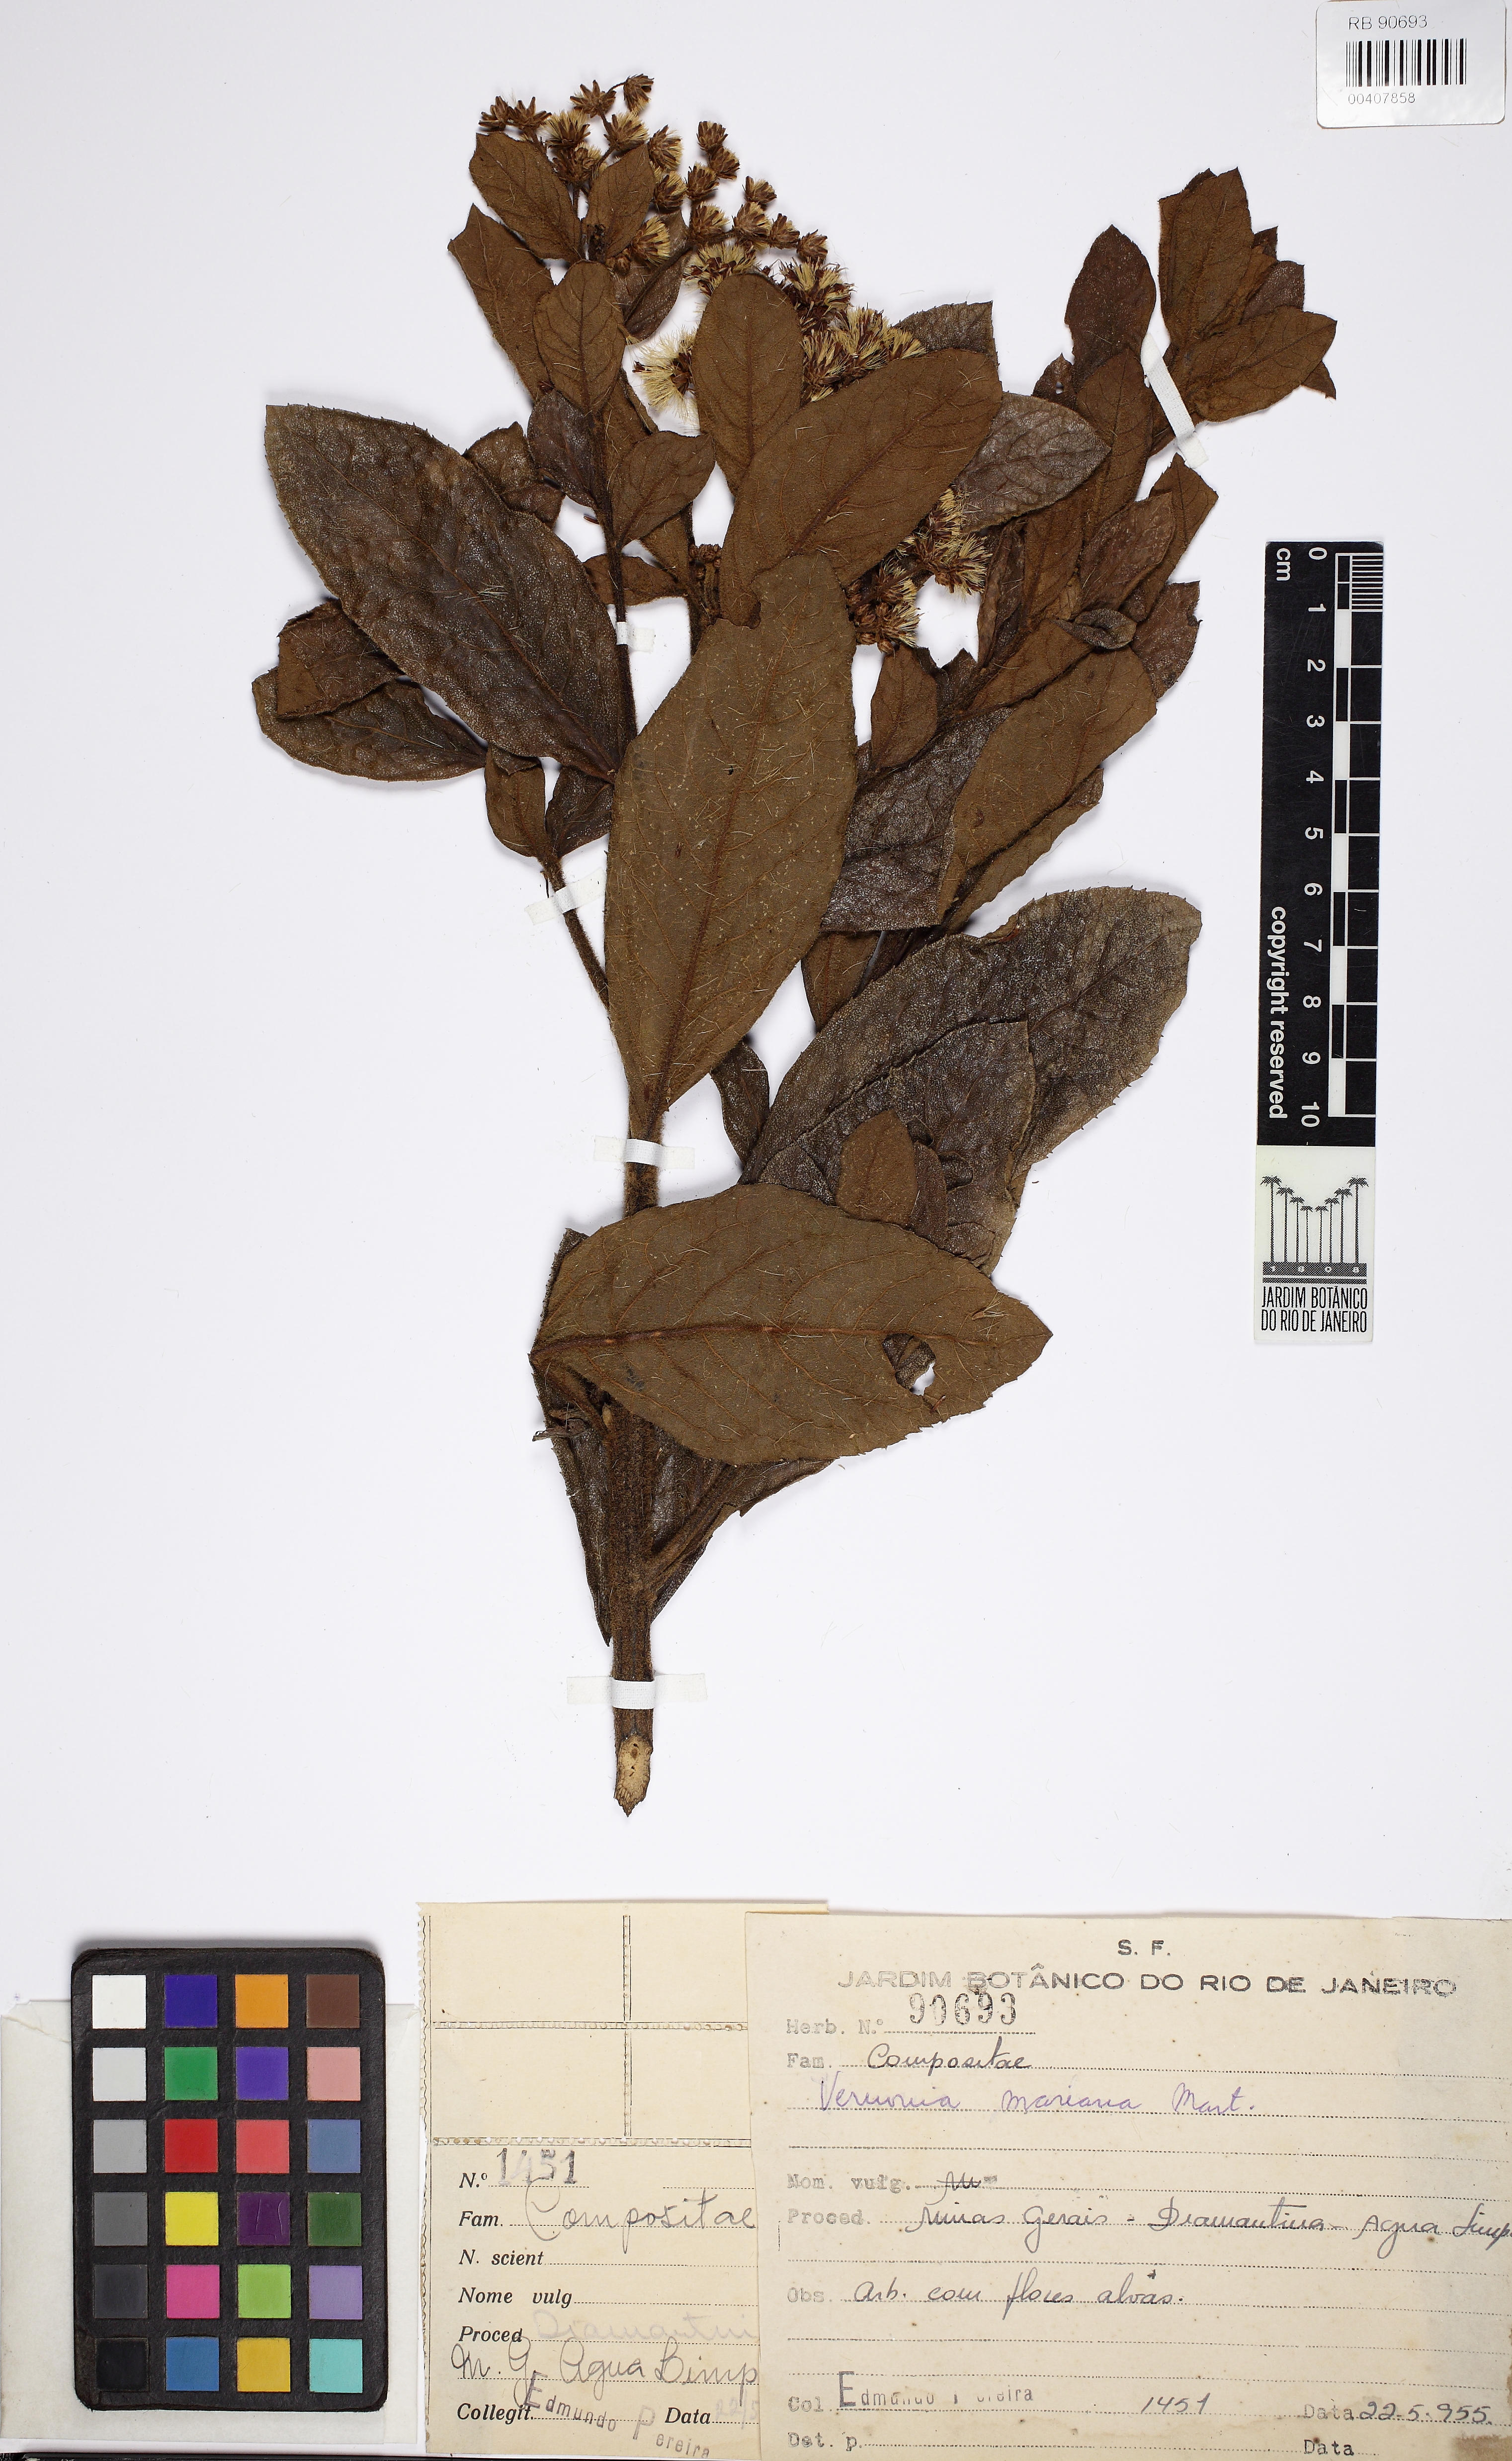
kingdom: Plantae
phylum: Tracheophyta
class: Magnoliopsida
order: Asterales
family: Asteraceae
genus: Vernonanthura
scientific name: Vernonanthura mariana
